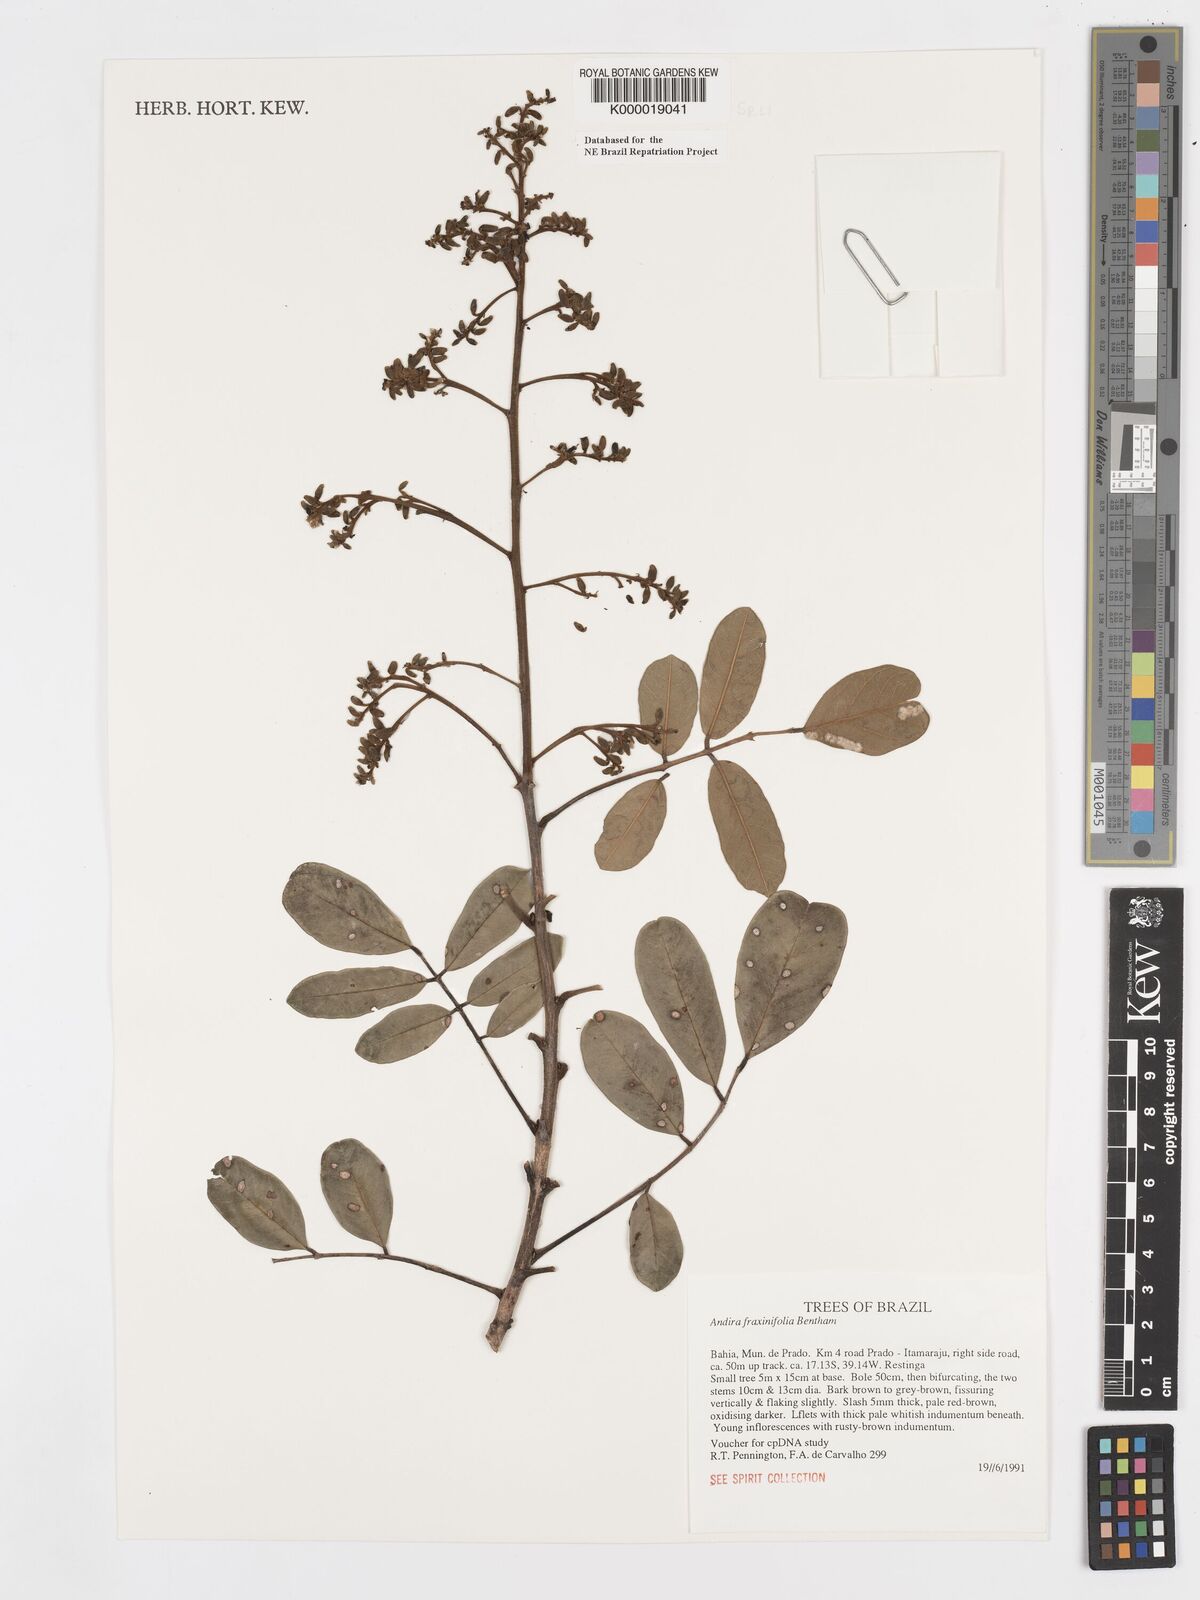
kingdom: Plantae
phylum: Tracheophyta
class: Magnoliopsida
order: Fabales
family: Fabaceae
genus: Andira
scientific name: Andira fraxinifolia
